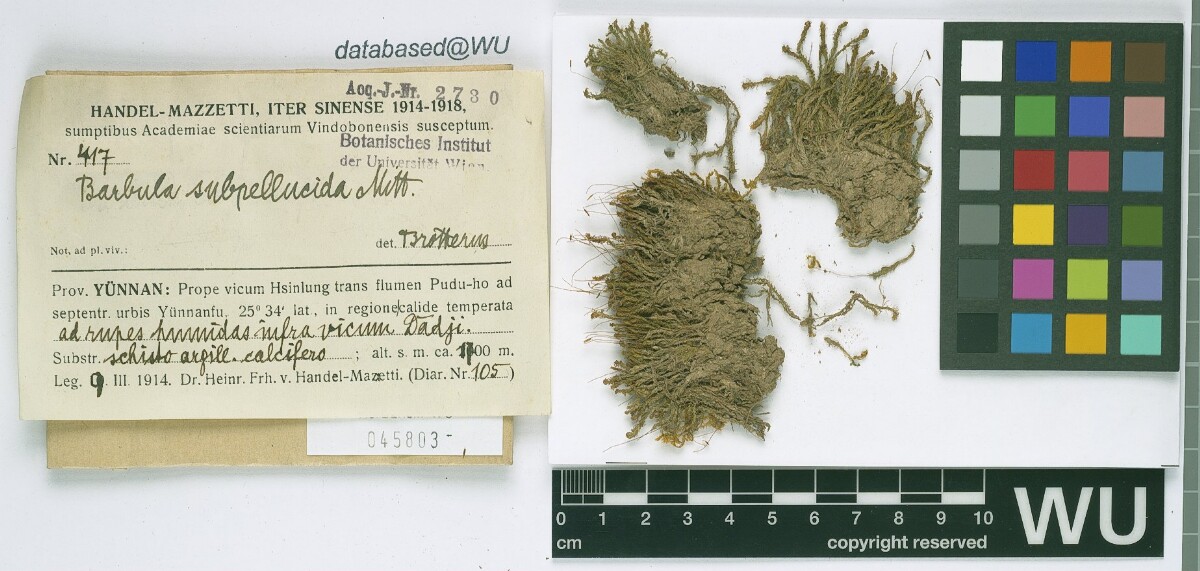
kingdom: Plantae
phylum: Bryophyta
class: Bryopsida
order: Pottiales
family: Pottiaceae
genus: Hydrogonium
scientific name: Hydrogonium subpellucidum
